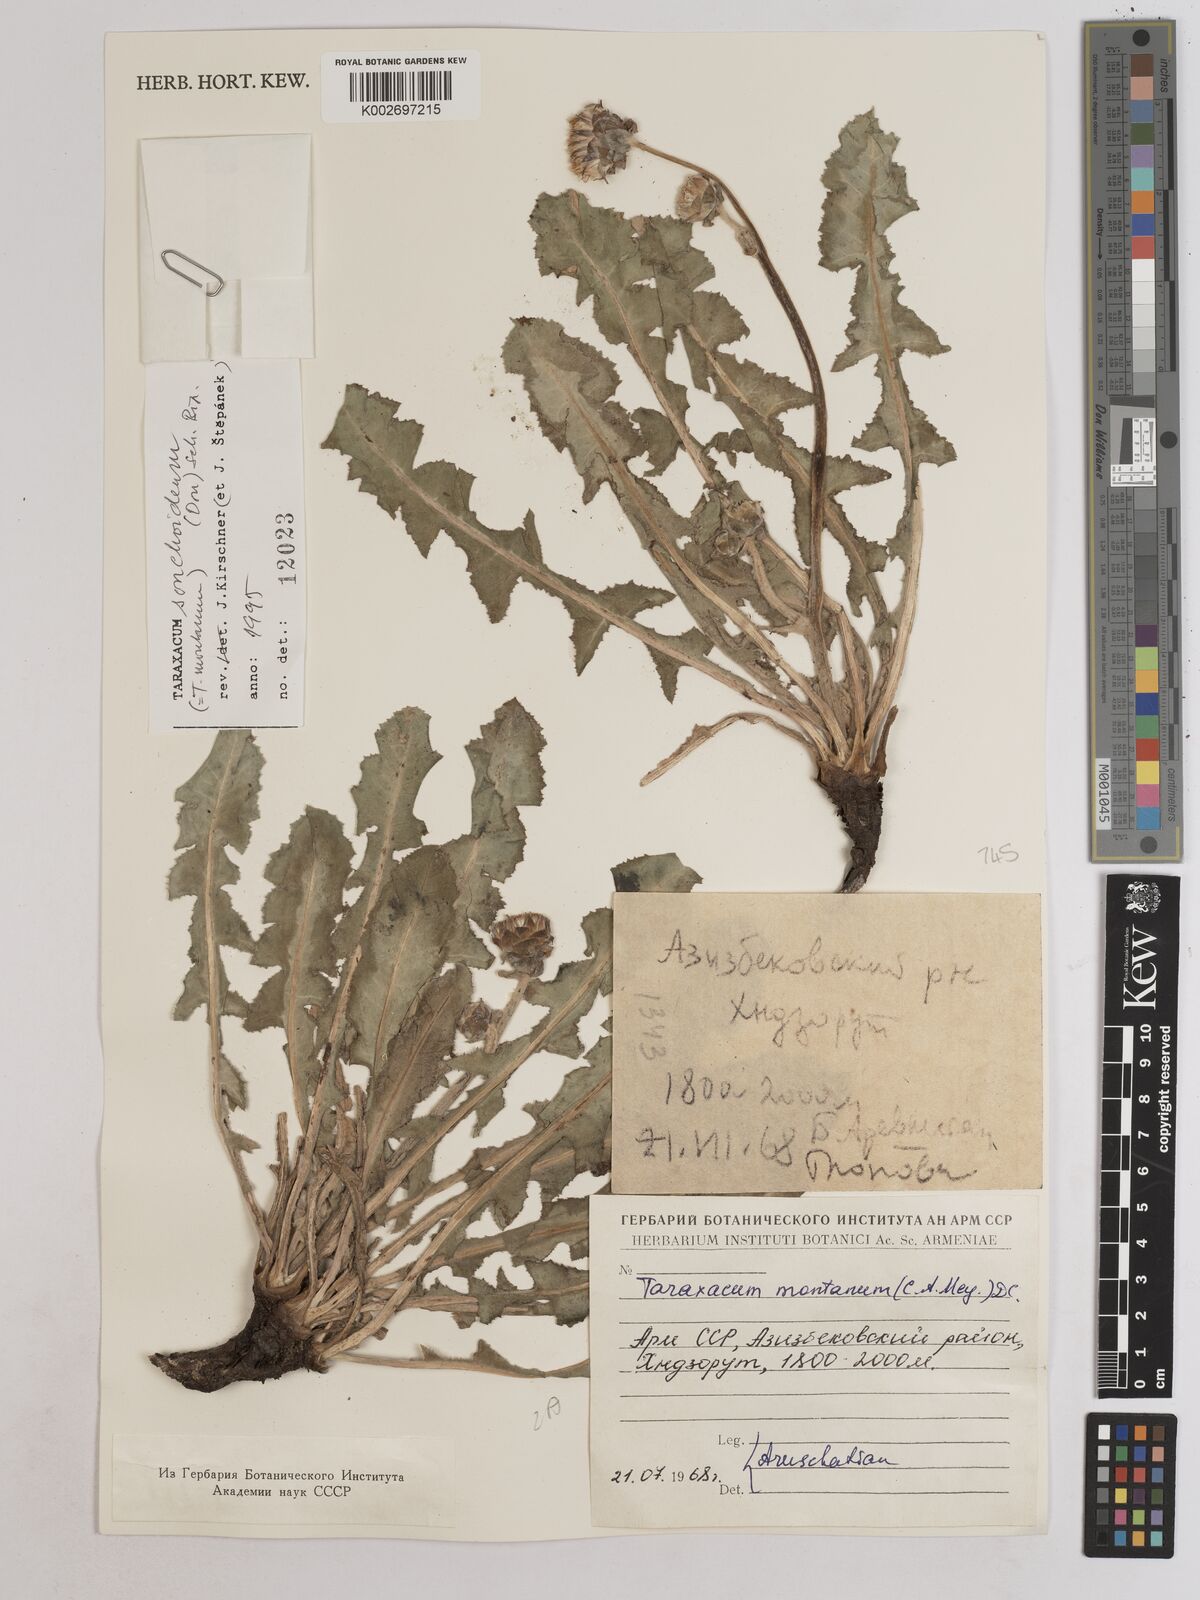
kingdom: Plantae
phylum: Tracheophyta
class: Magnoliopsida
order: Asterales
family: Asteraceae
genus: Taraxacum
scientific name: Taraxacum sonchoides
